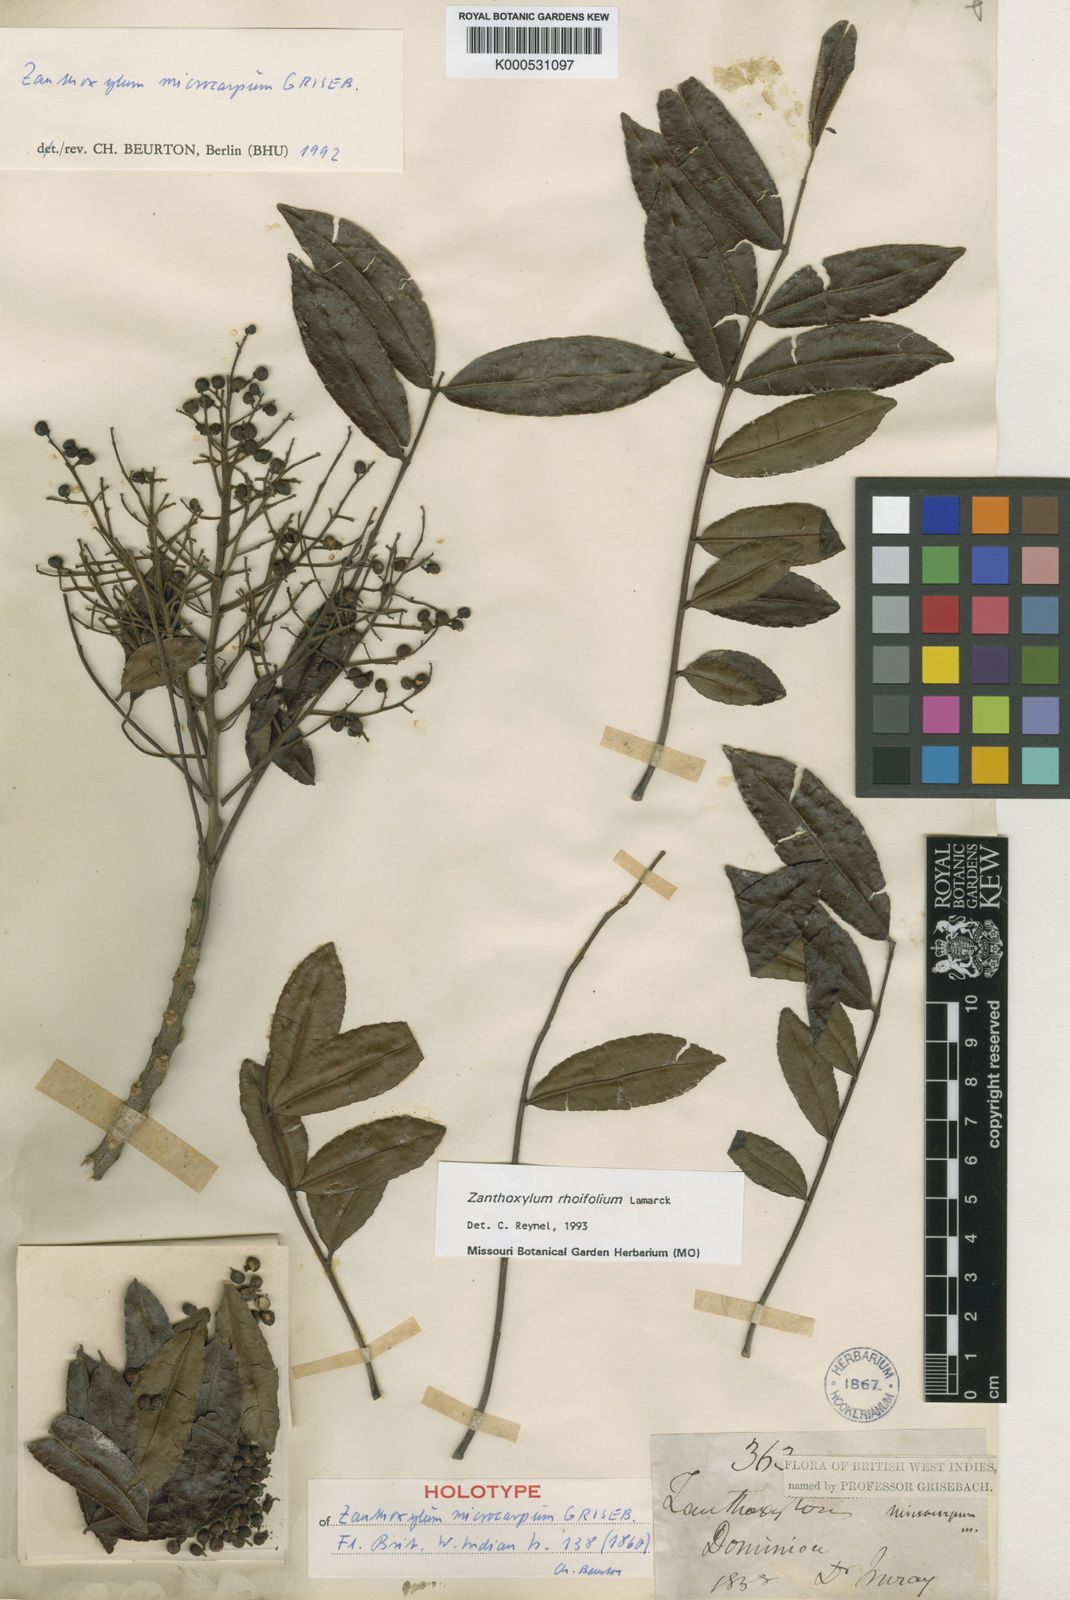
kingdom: Plantae
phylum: Tracheophyta
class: Magnoliopsida
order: Sapindales
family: Rutaceae
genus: Zanthoxylum
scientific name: Zanthoxylum rhoifolium
